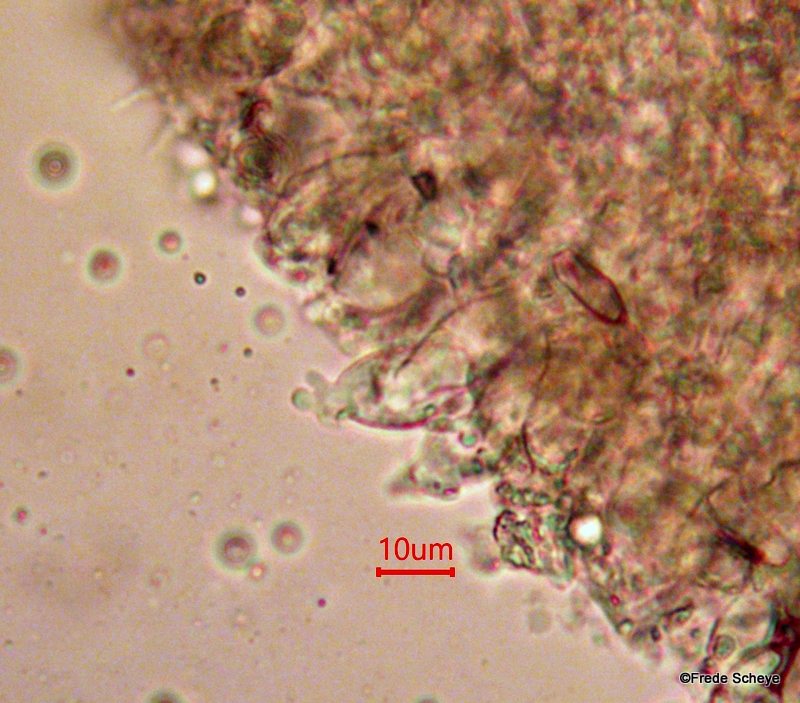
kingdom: Fungi
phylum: Basidiomycota
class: Agaricomycetes
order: Agaricales
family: Mycenaceae
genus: Mycena
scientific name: Mycena vitilis
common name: blankstokket huesvamp
